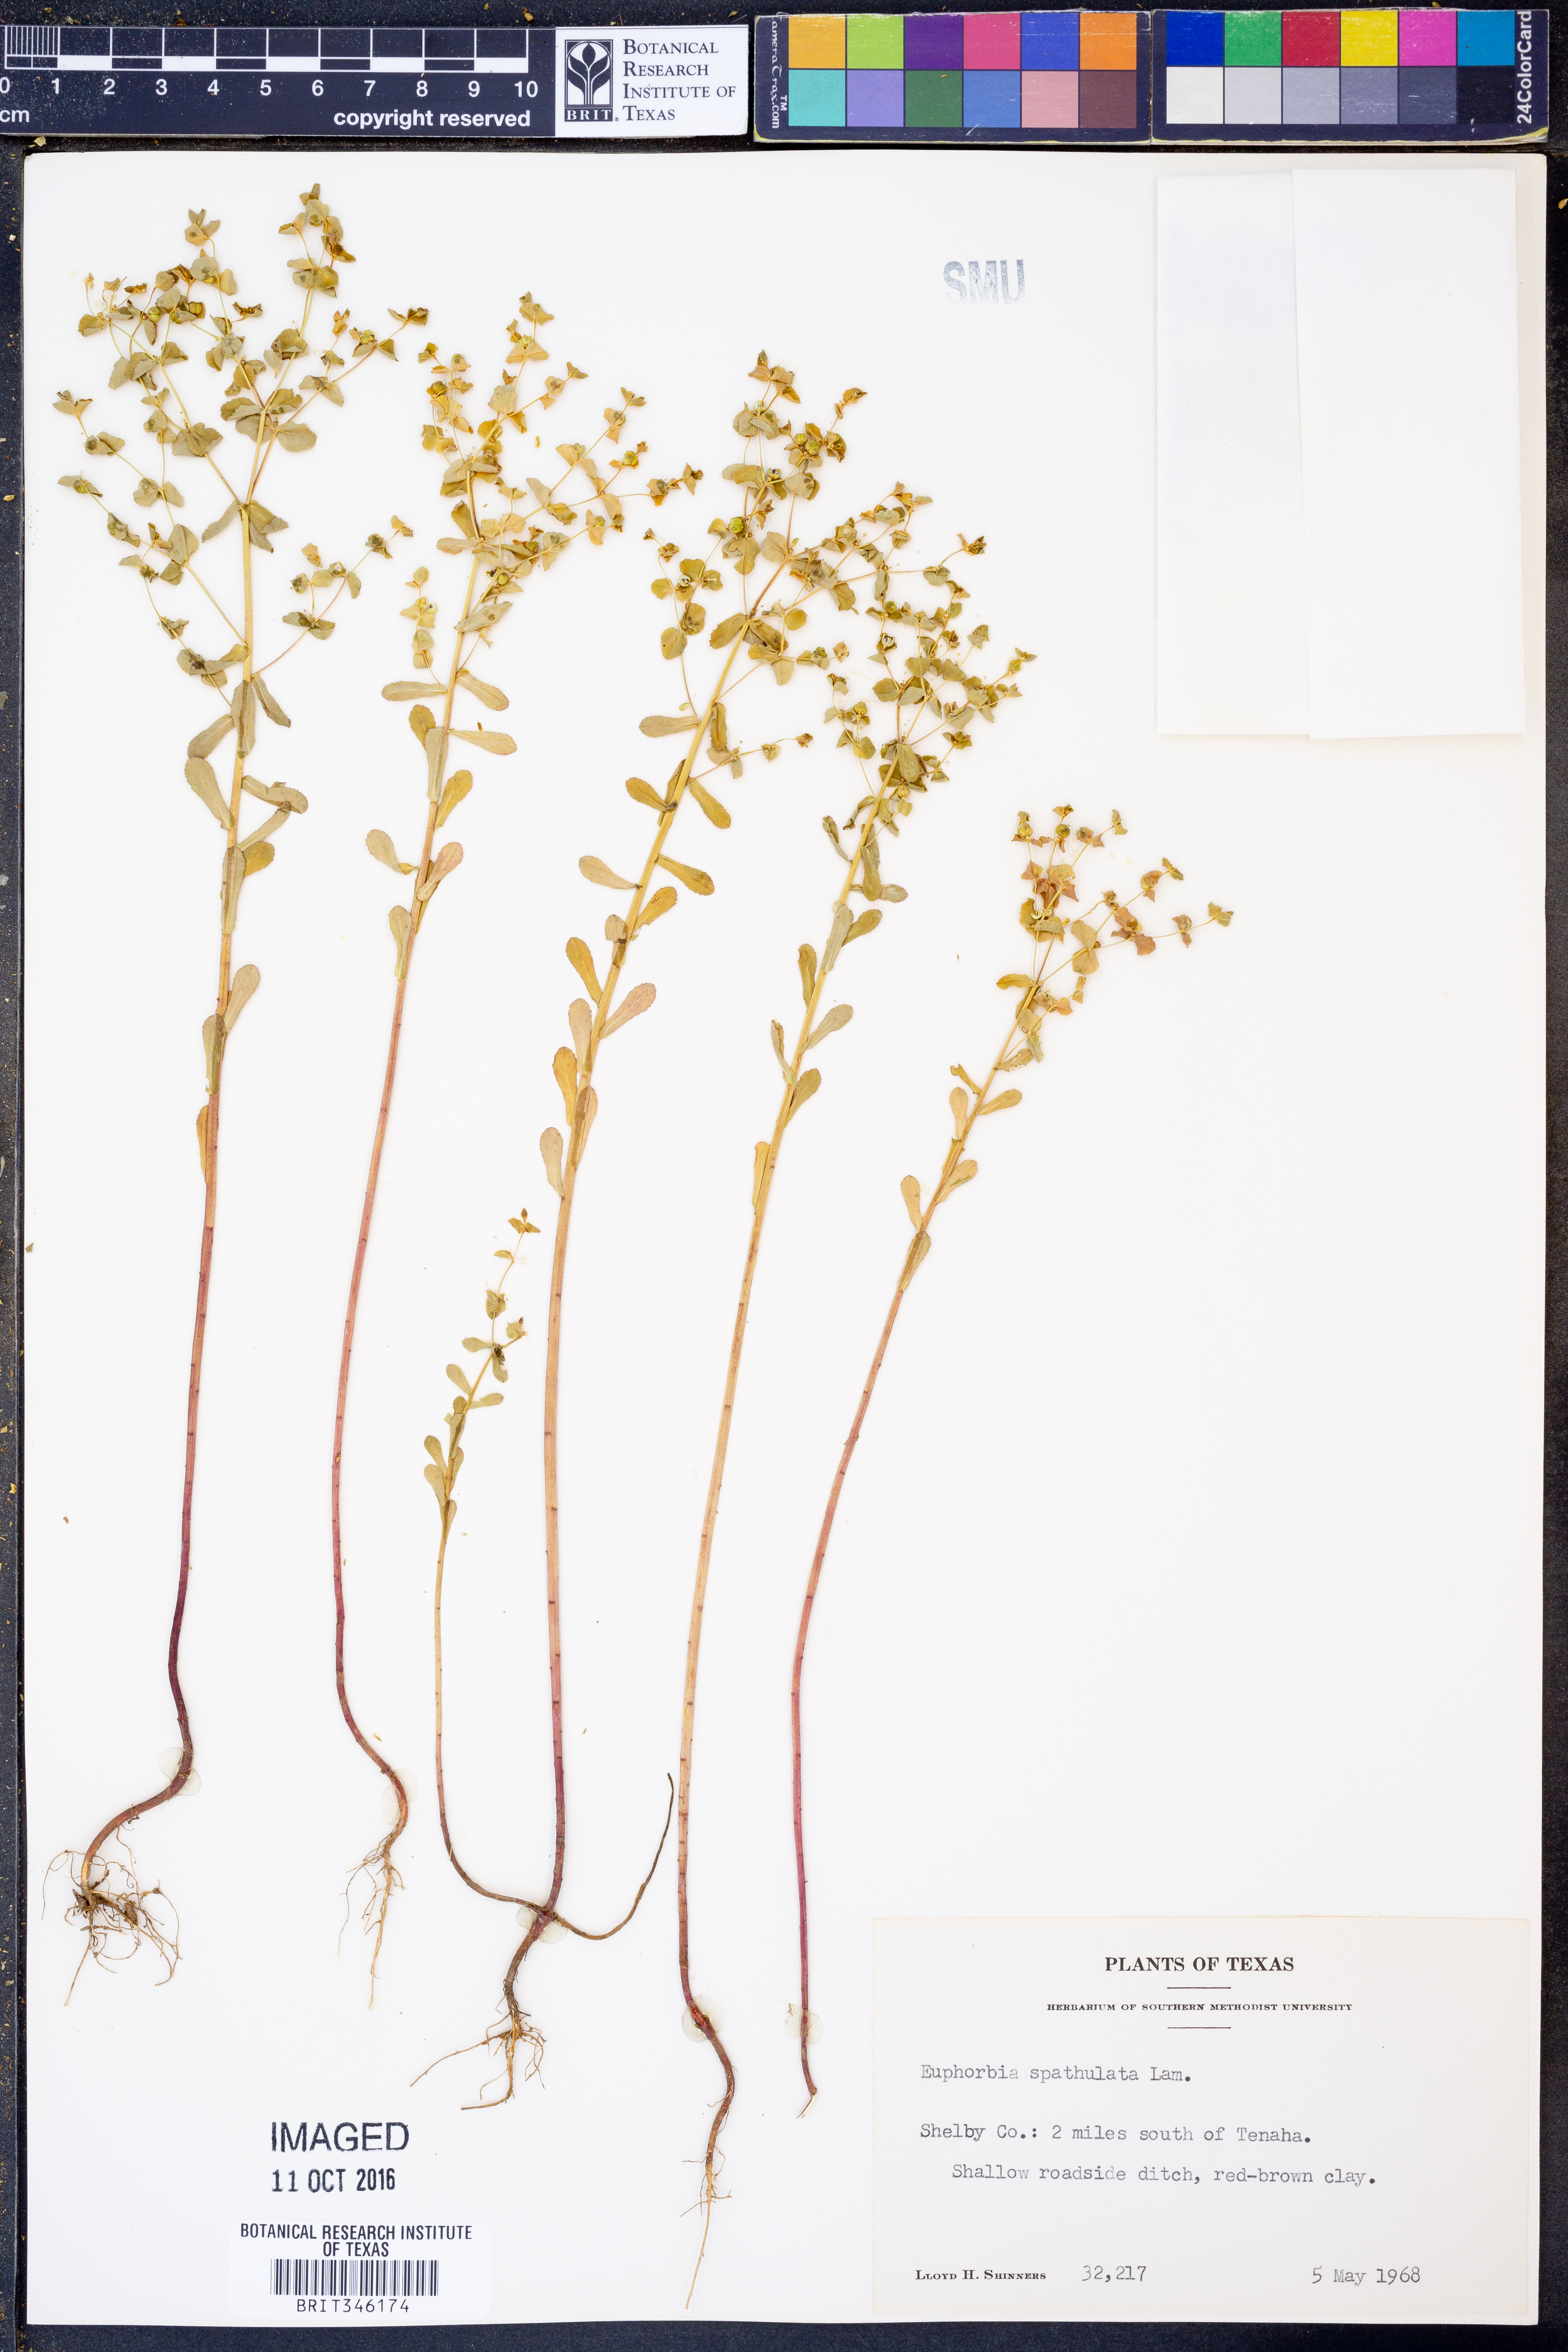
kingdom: Plantae
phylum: Tracheophyta
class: Magnoliopsida
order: Malpighiales
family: Euphorbiaceae
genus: Euphorbia
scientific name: Euphorbia spathulata
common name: Blunt spurge
